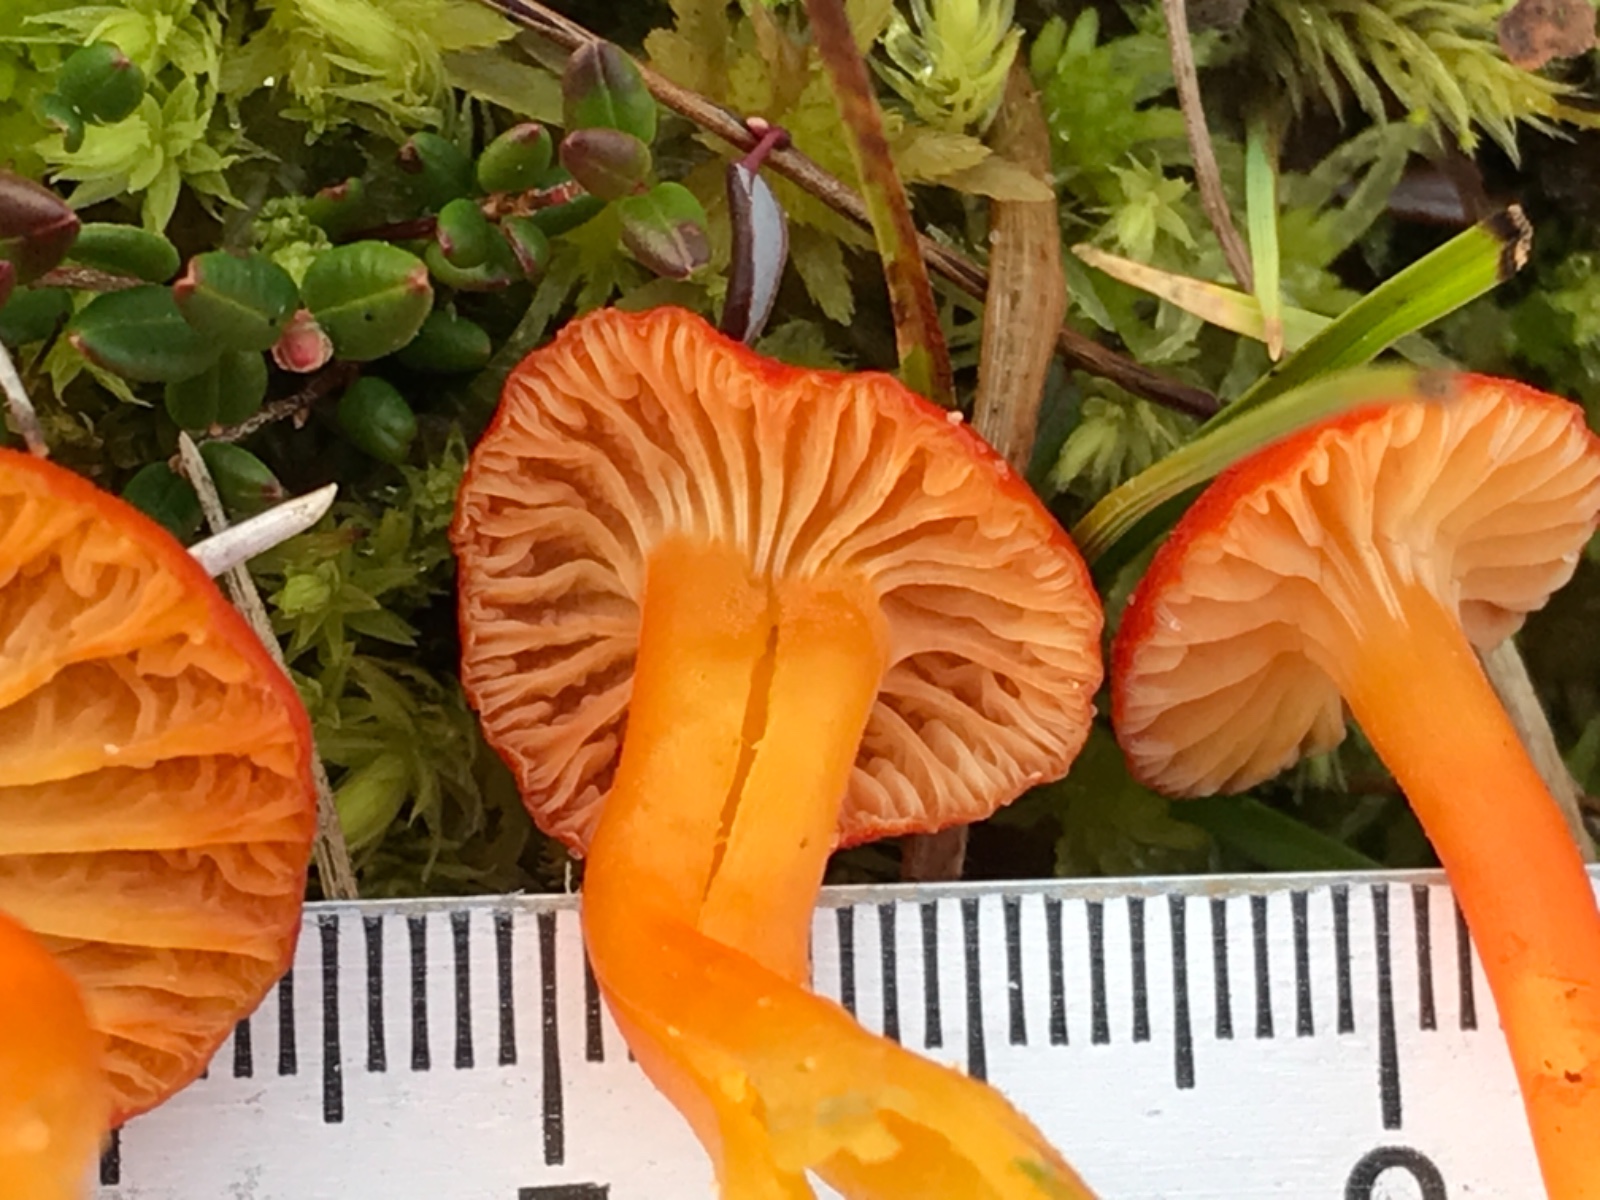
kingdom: Fungi
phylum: Basidiomycota
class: Agaricomycetes
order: Agaricales
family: Hygrophoraceae
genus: Hygrocybe
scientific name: Hygrocybe substrangulata
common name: kær-vokshat
